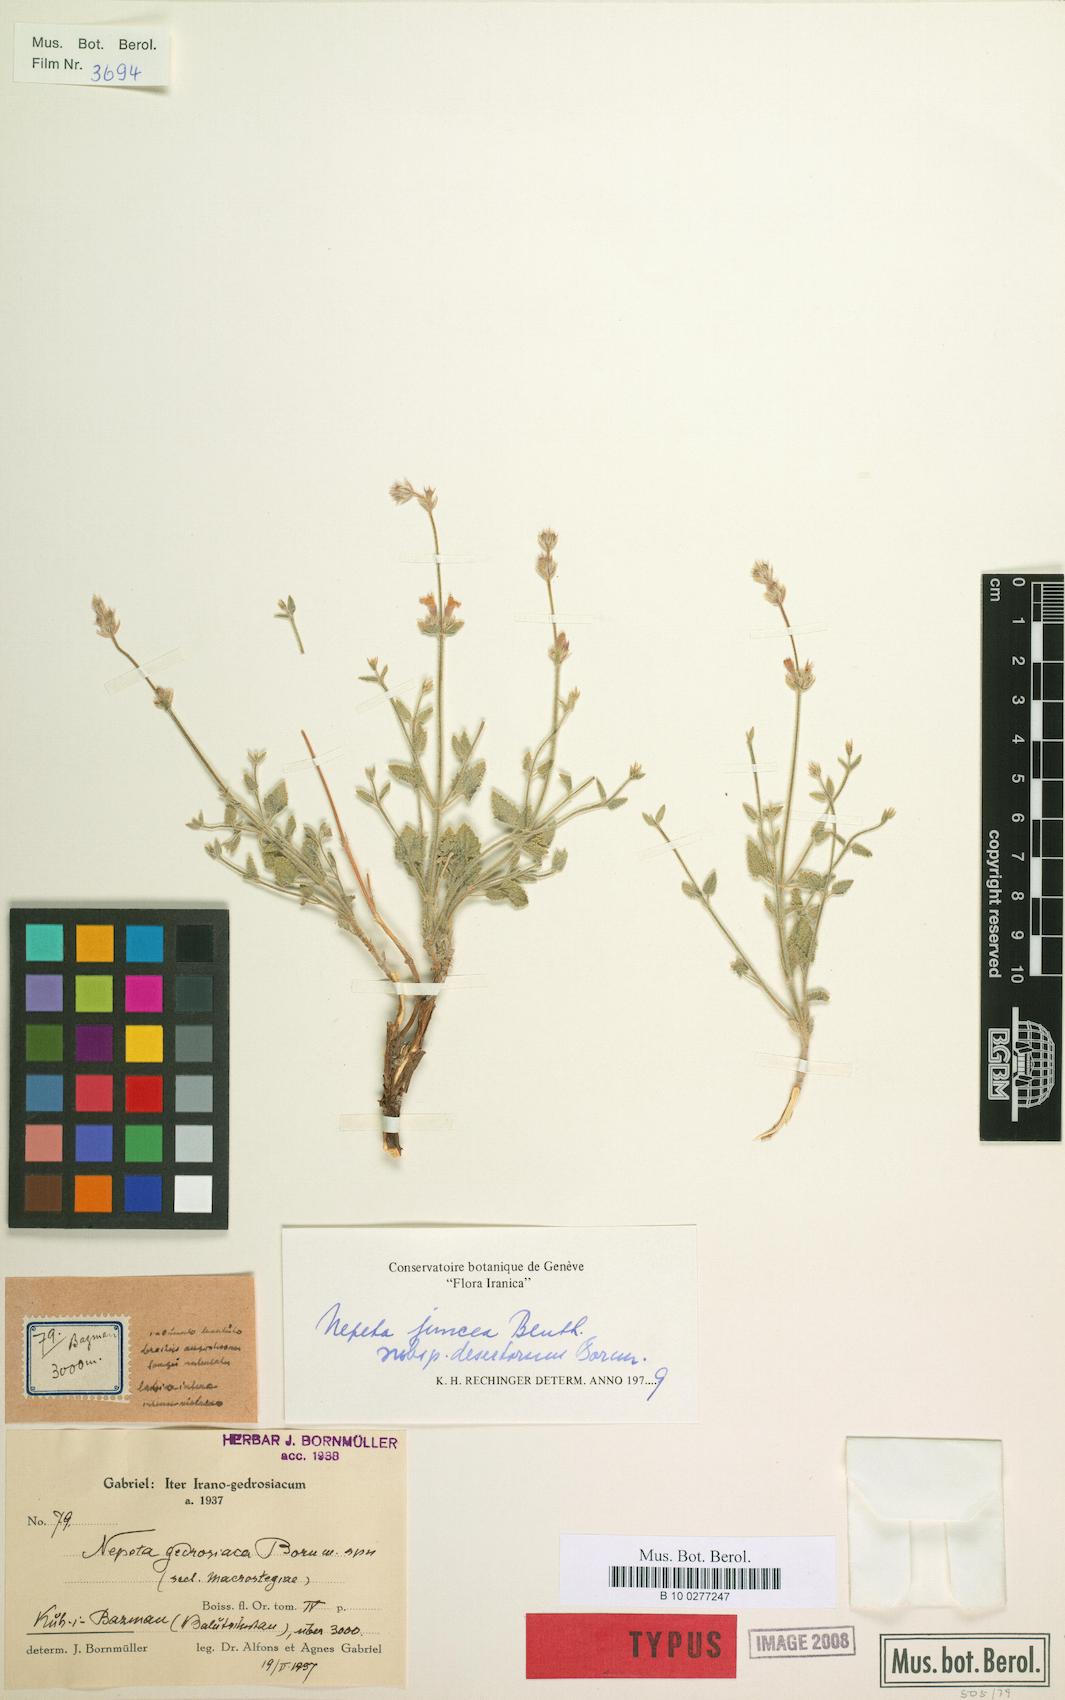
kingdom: Plantae
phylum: Tracheophyta
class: Magnoliopsida
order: Lamiales
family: Lamiaceae
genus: Nepeta
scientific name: Nepeta glomerulosa
